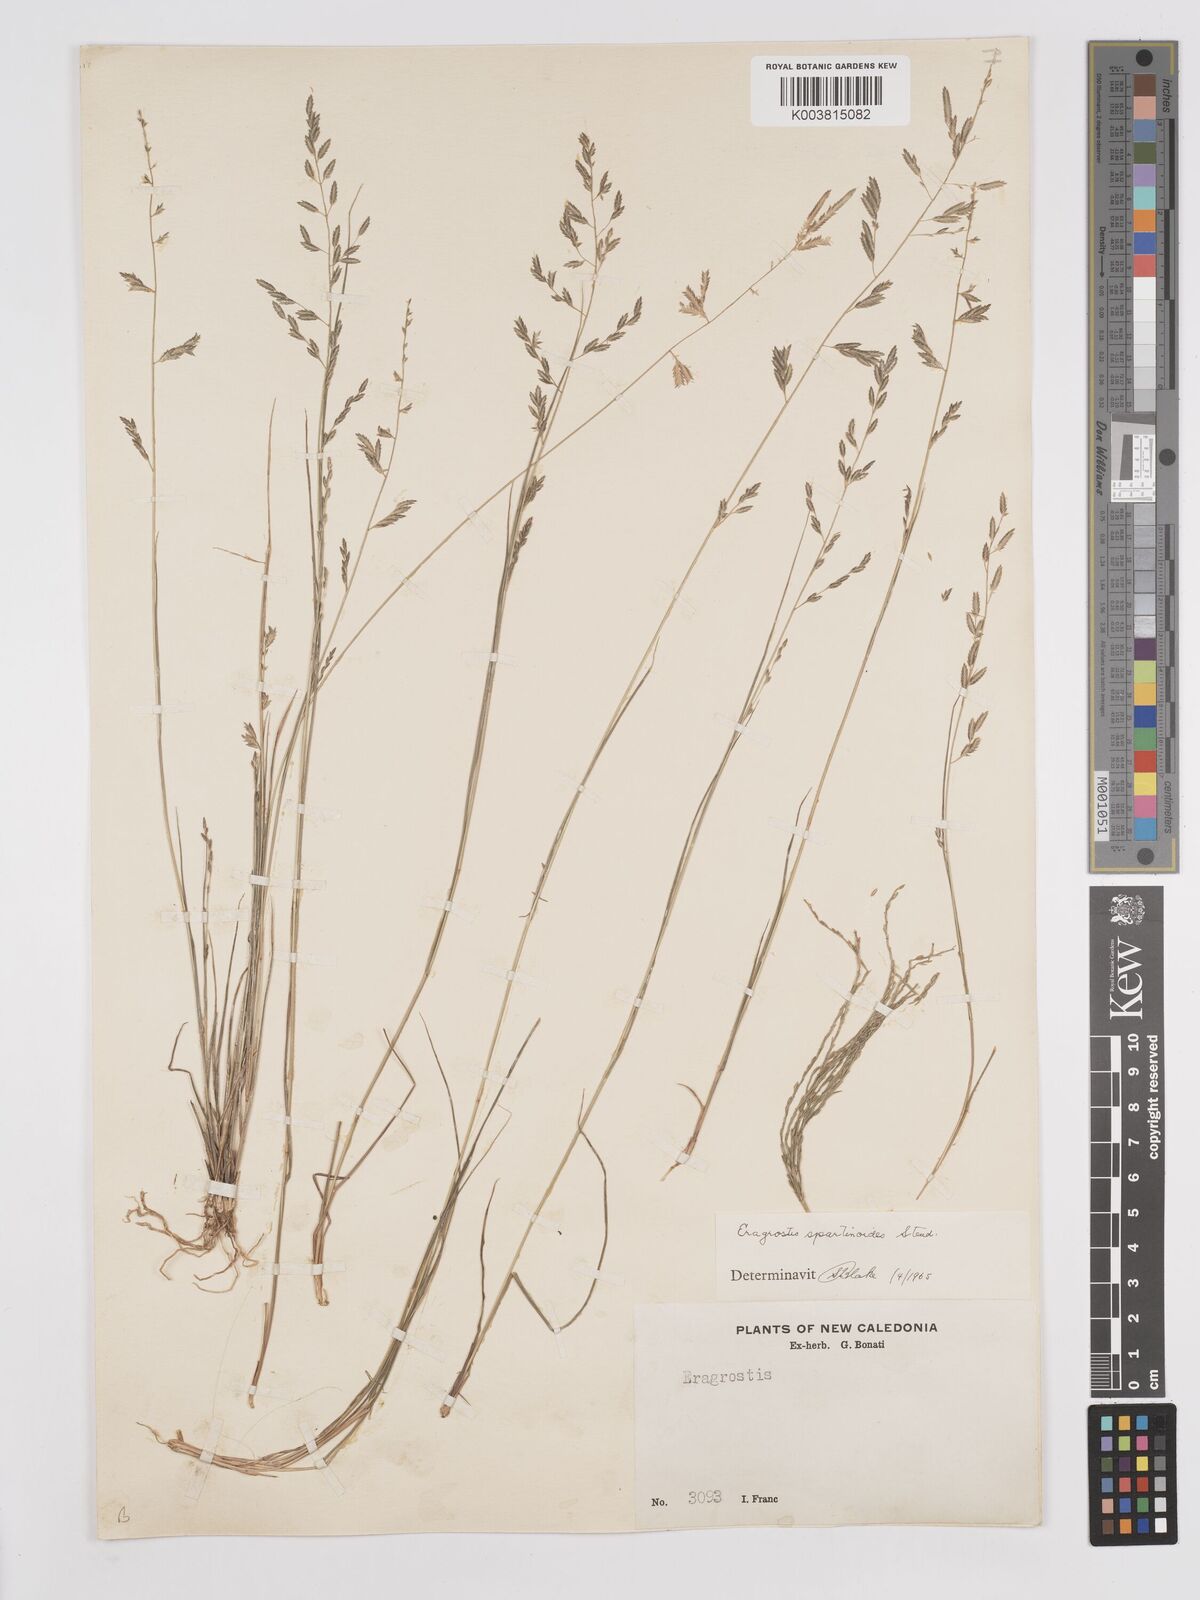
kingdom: Plantae
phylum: Tracheophyta
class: Liliopsida
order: Poales
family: Poaceae
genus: Eragrostis
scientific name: Eragrostis brownii
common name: Lovegrass
